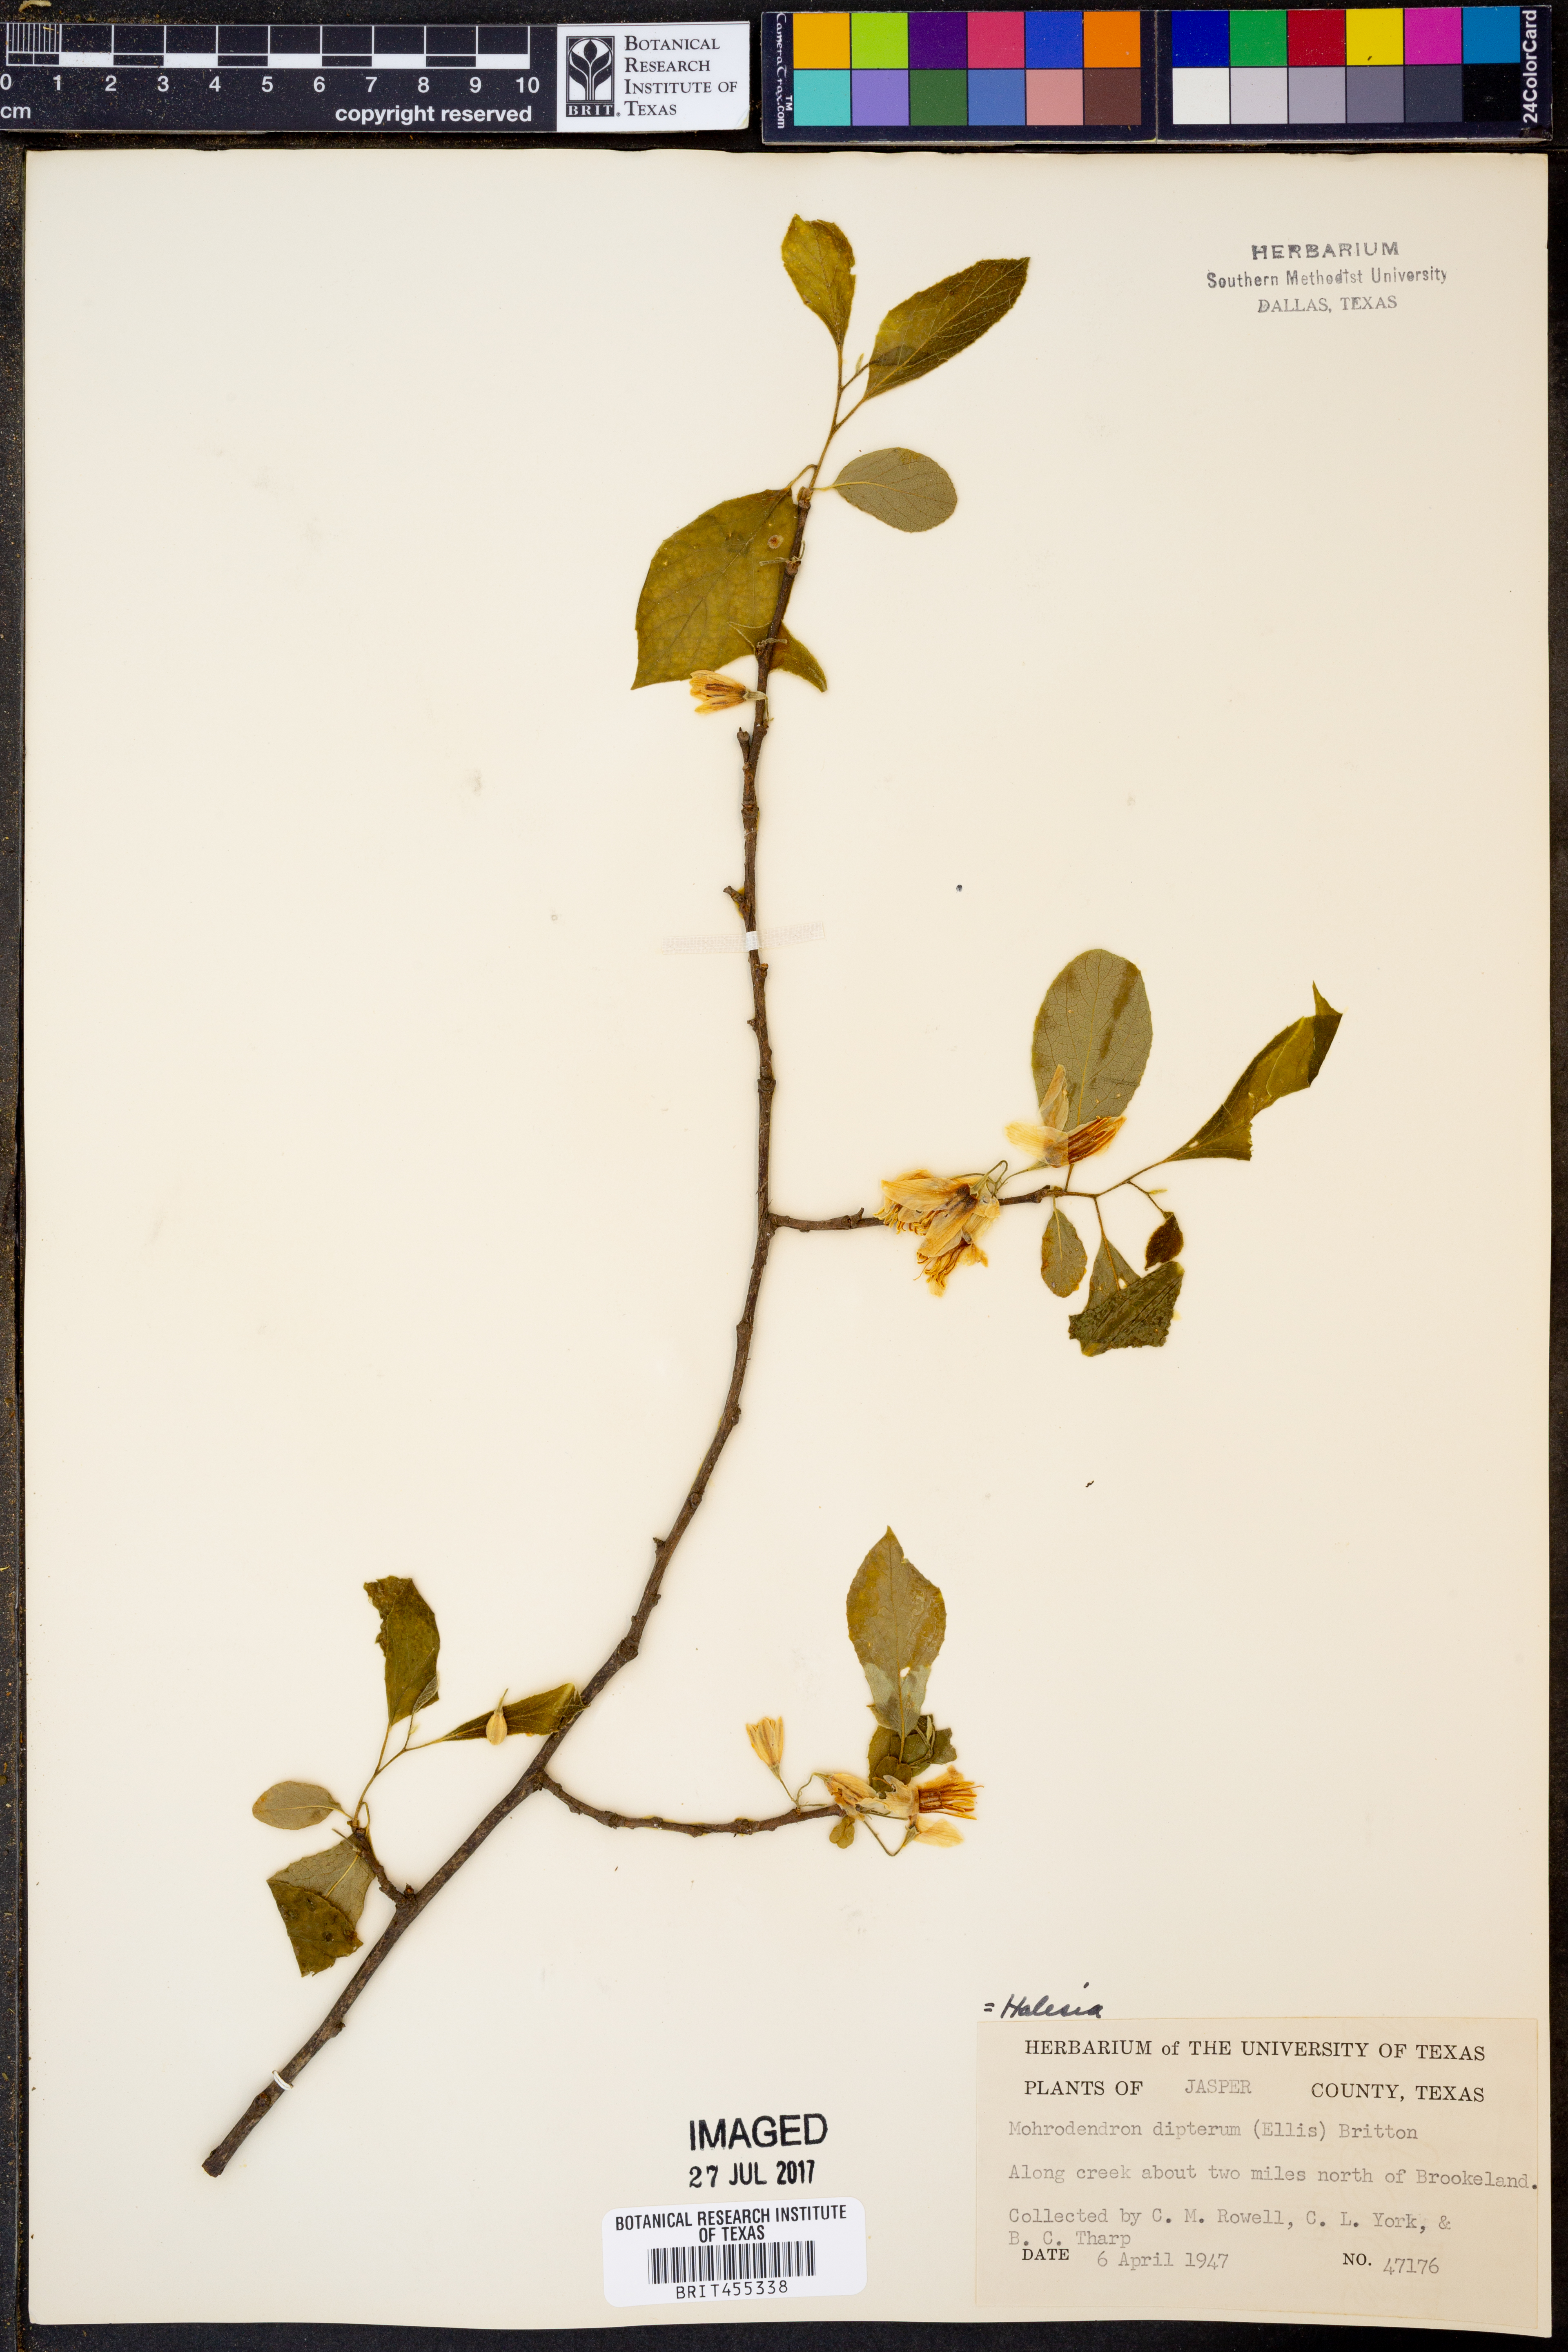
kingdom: Plantae
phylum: Tracheophyta
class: Magnoliopsida
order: Ericales
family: Styracaceae
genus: Halesia
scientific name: Halesia diptera
